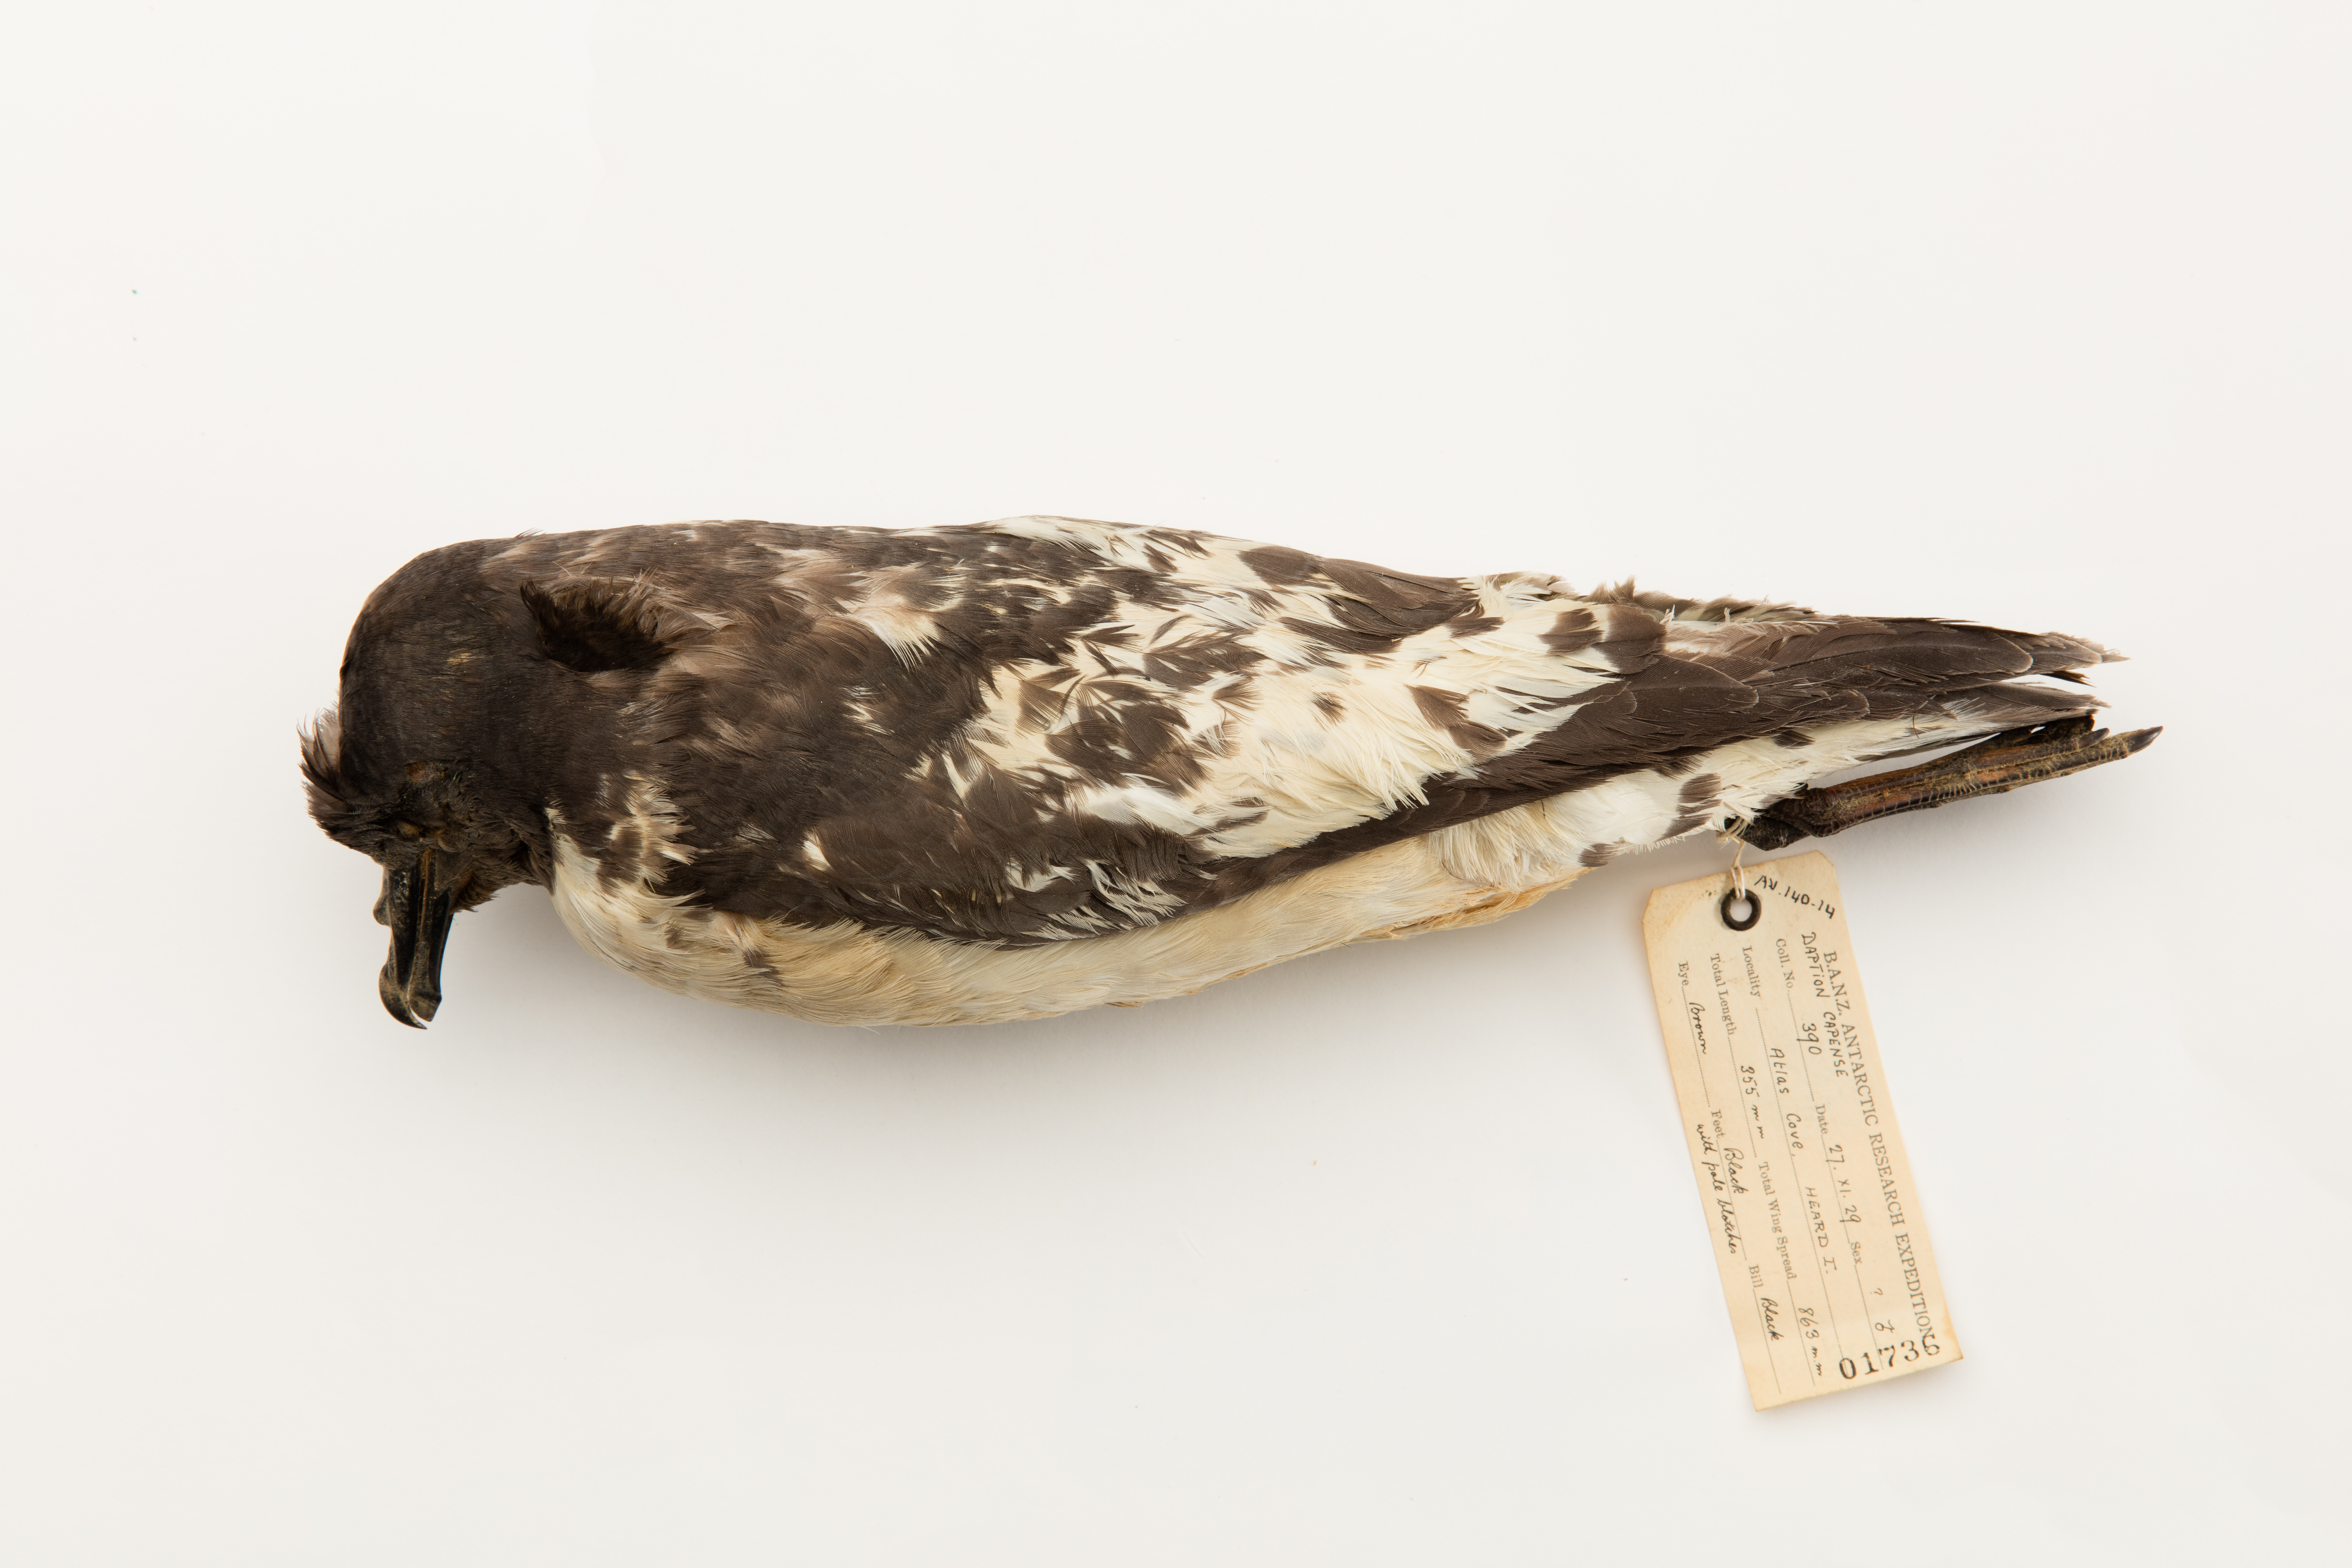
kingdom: Animalia
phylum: Chordata
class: Aves
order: Procellariiformes
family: Procellariidae
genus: Daption
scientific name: Daption capense
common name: Cape petrel
